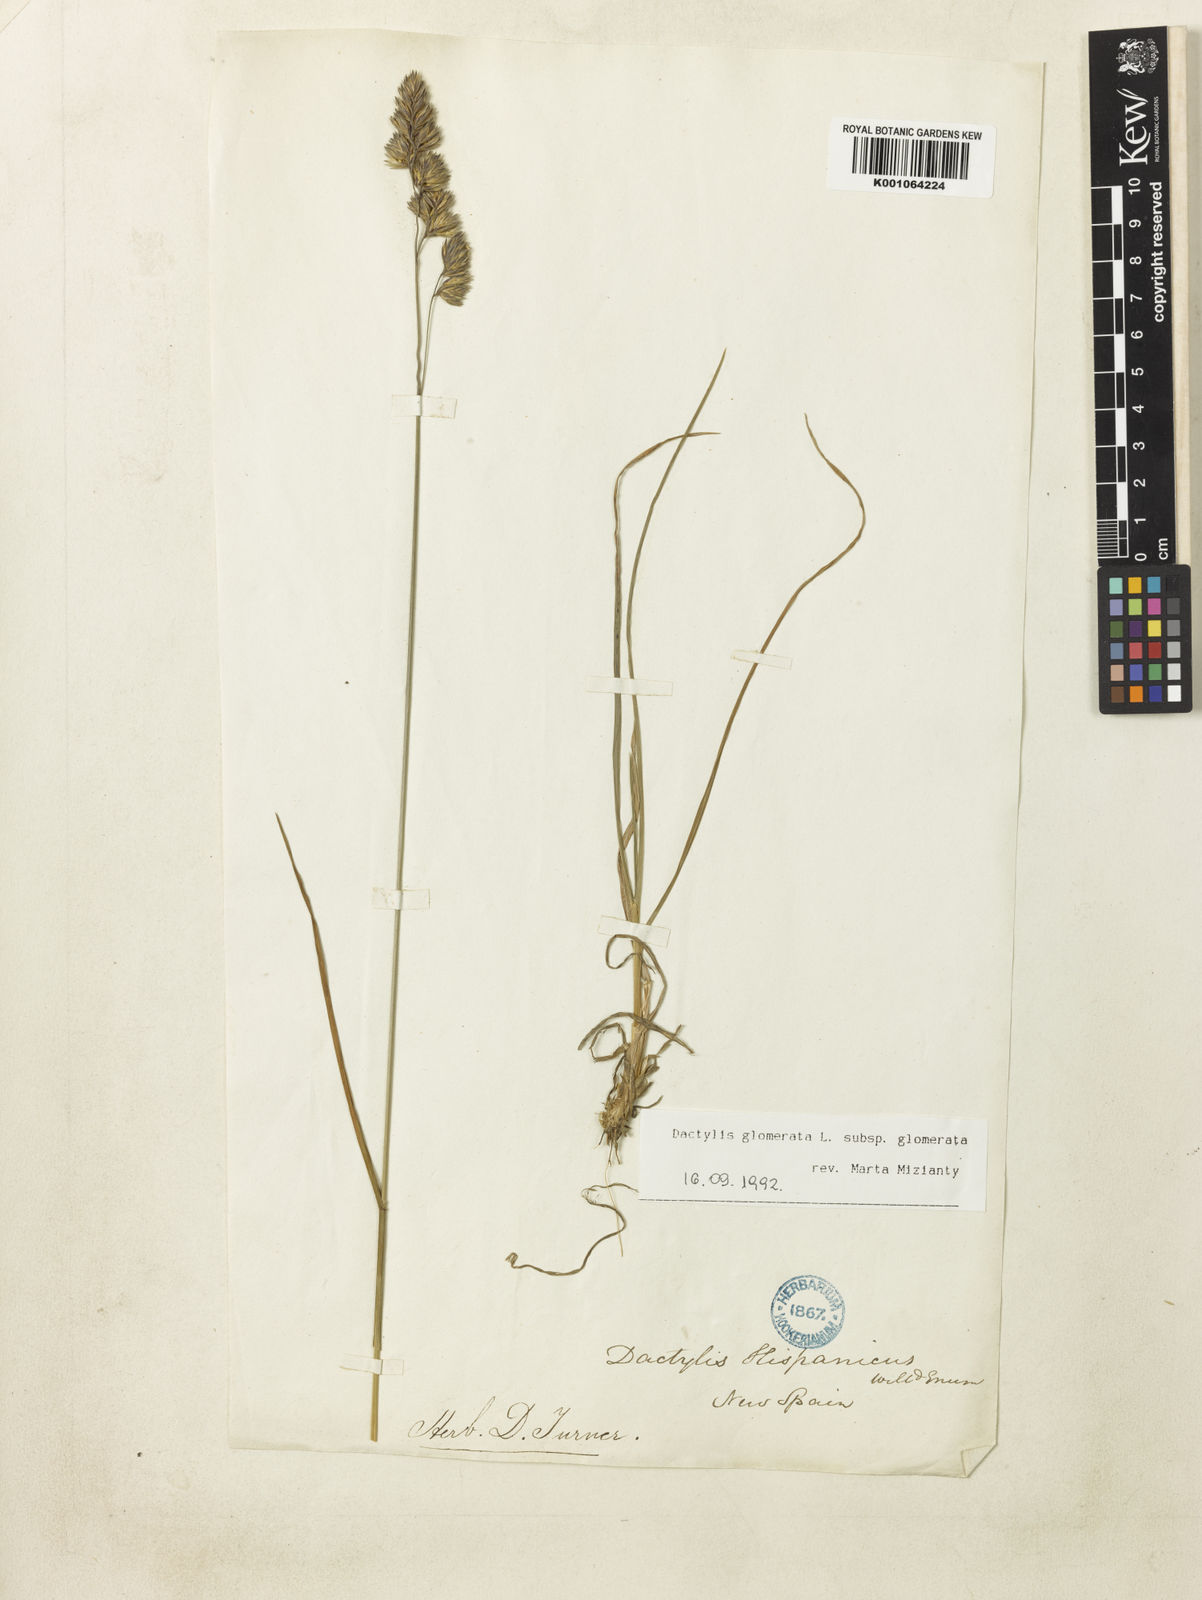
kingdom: Plantae
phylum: Tracheophyta
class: Liliopsida
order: Poales
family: Poaceae
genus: Dactylis
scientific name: Dactylis glomerata
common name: Orchardgrass
